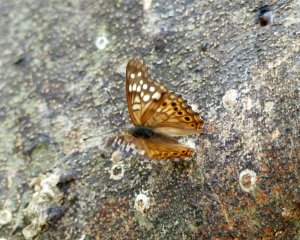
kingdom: Animalia
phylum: Arthropoda
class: Insecta
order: Lepidoptera
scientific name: Lepidoptera
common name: Butterflies
